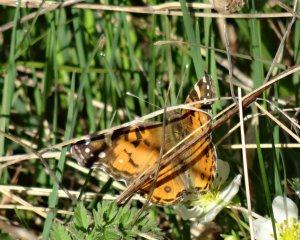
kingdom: Animalia
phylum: Arthropoda
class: Insecta
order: Lepidoptera
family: Nymphalidae
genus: Vanessa
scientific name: Vanessa virginiensis
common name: American Lady
